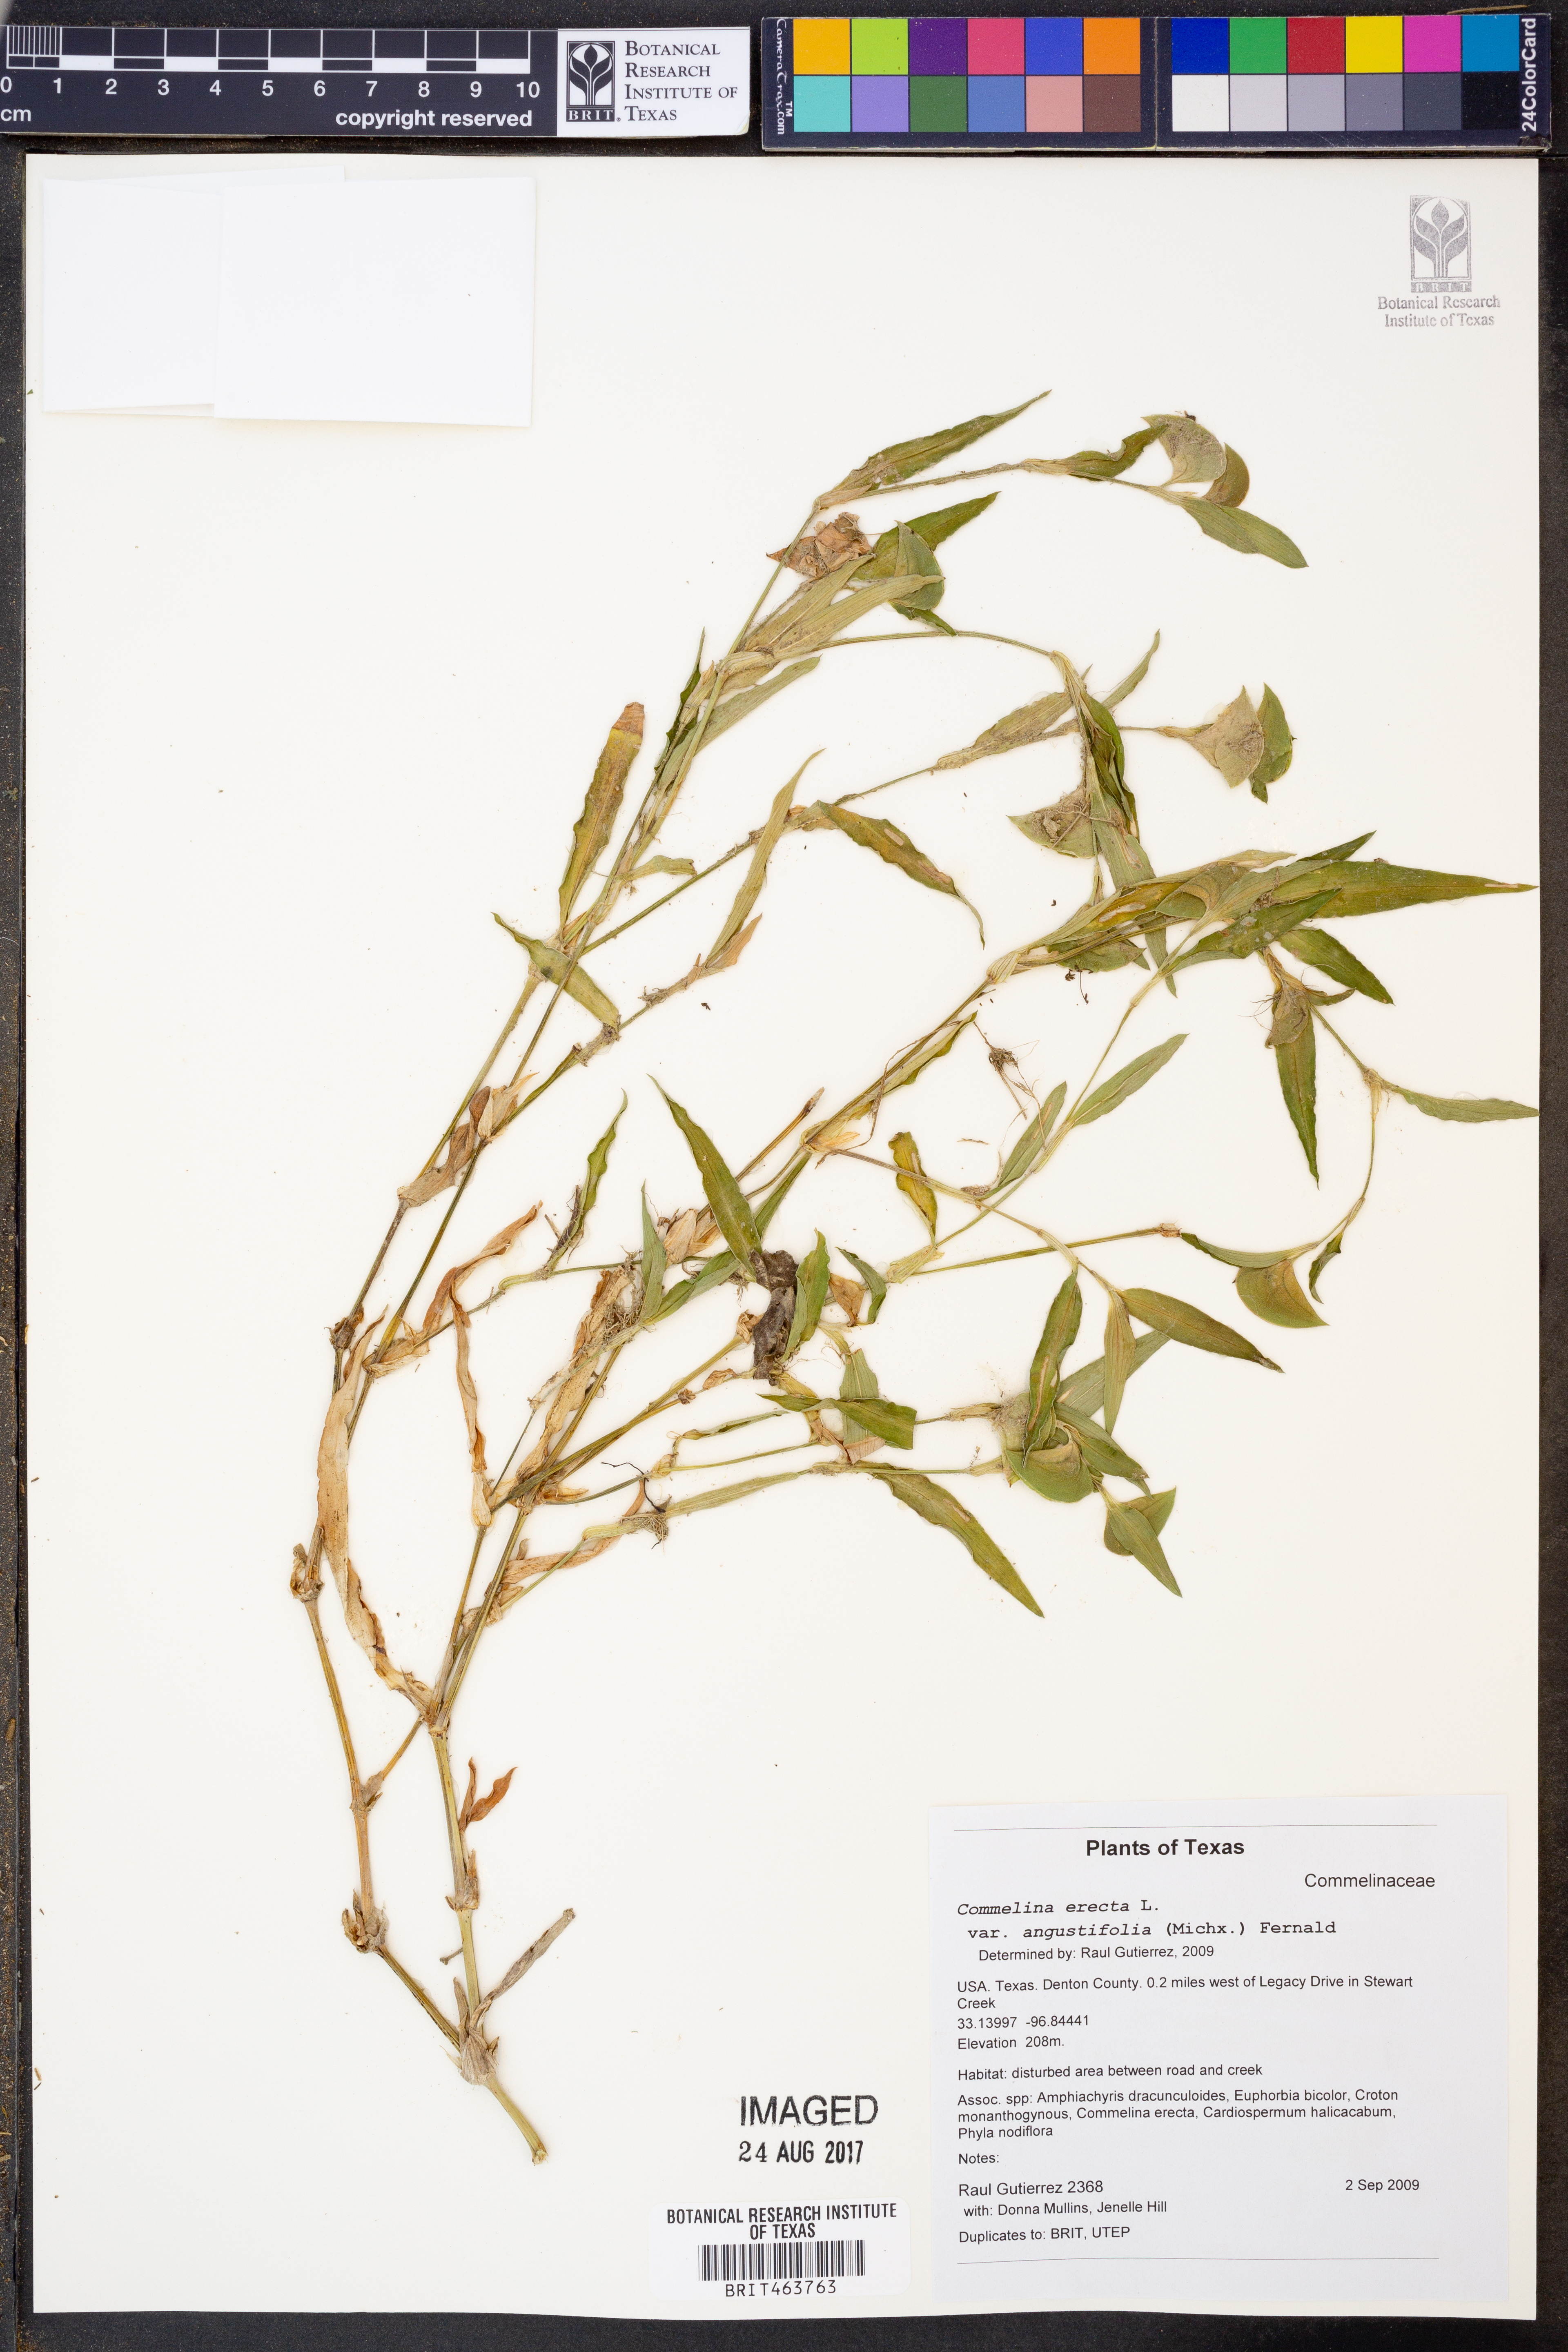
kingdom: Plantae
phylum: Tracheophyta
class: Liliopsida
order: Commelinales
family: Commelinaceae
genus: Commelina
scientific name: Commelina erecta
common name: Blousel blommetjie
